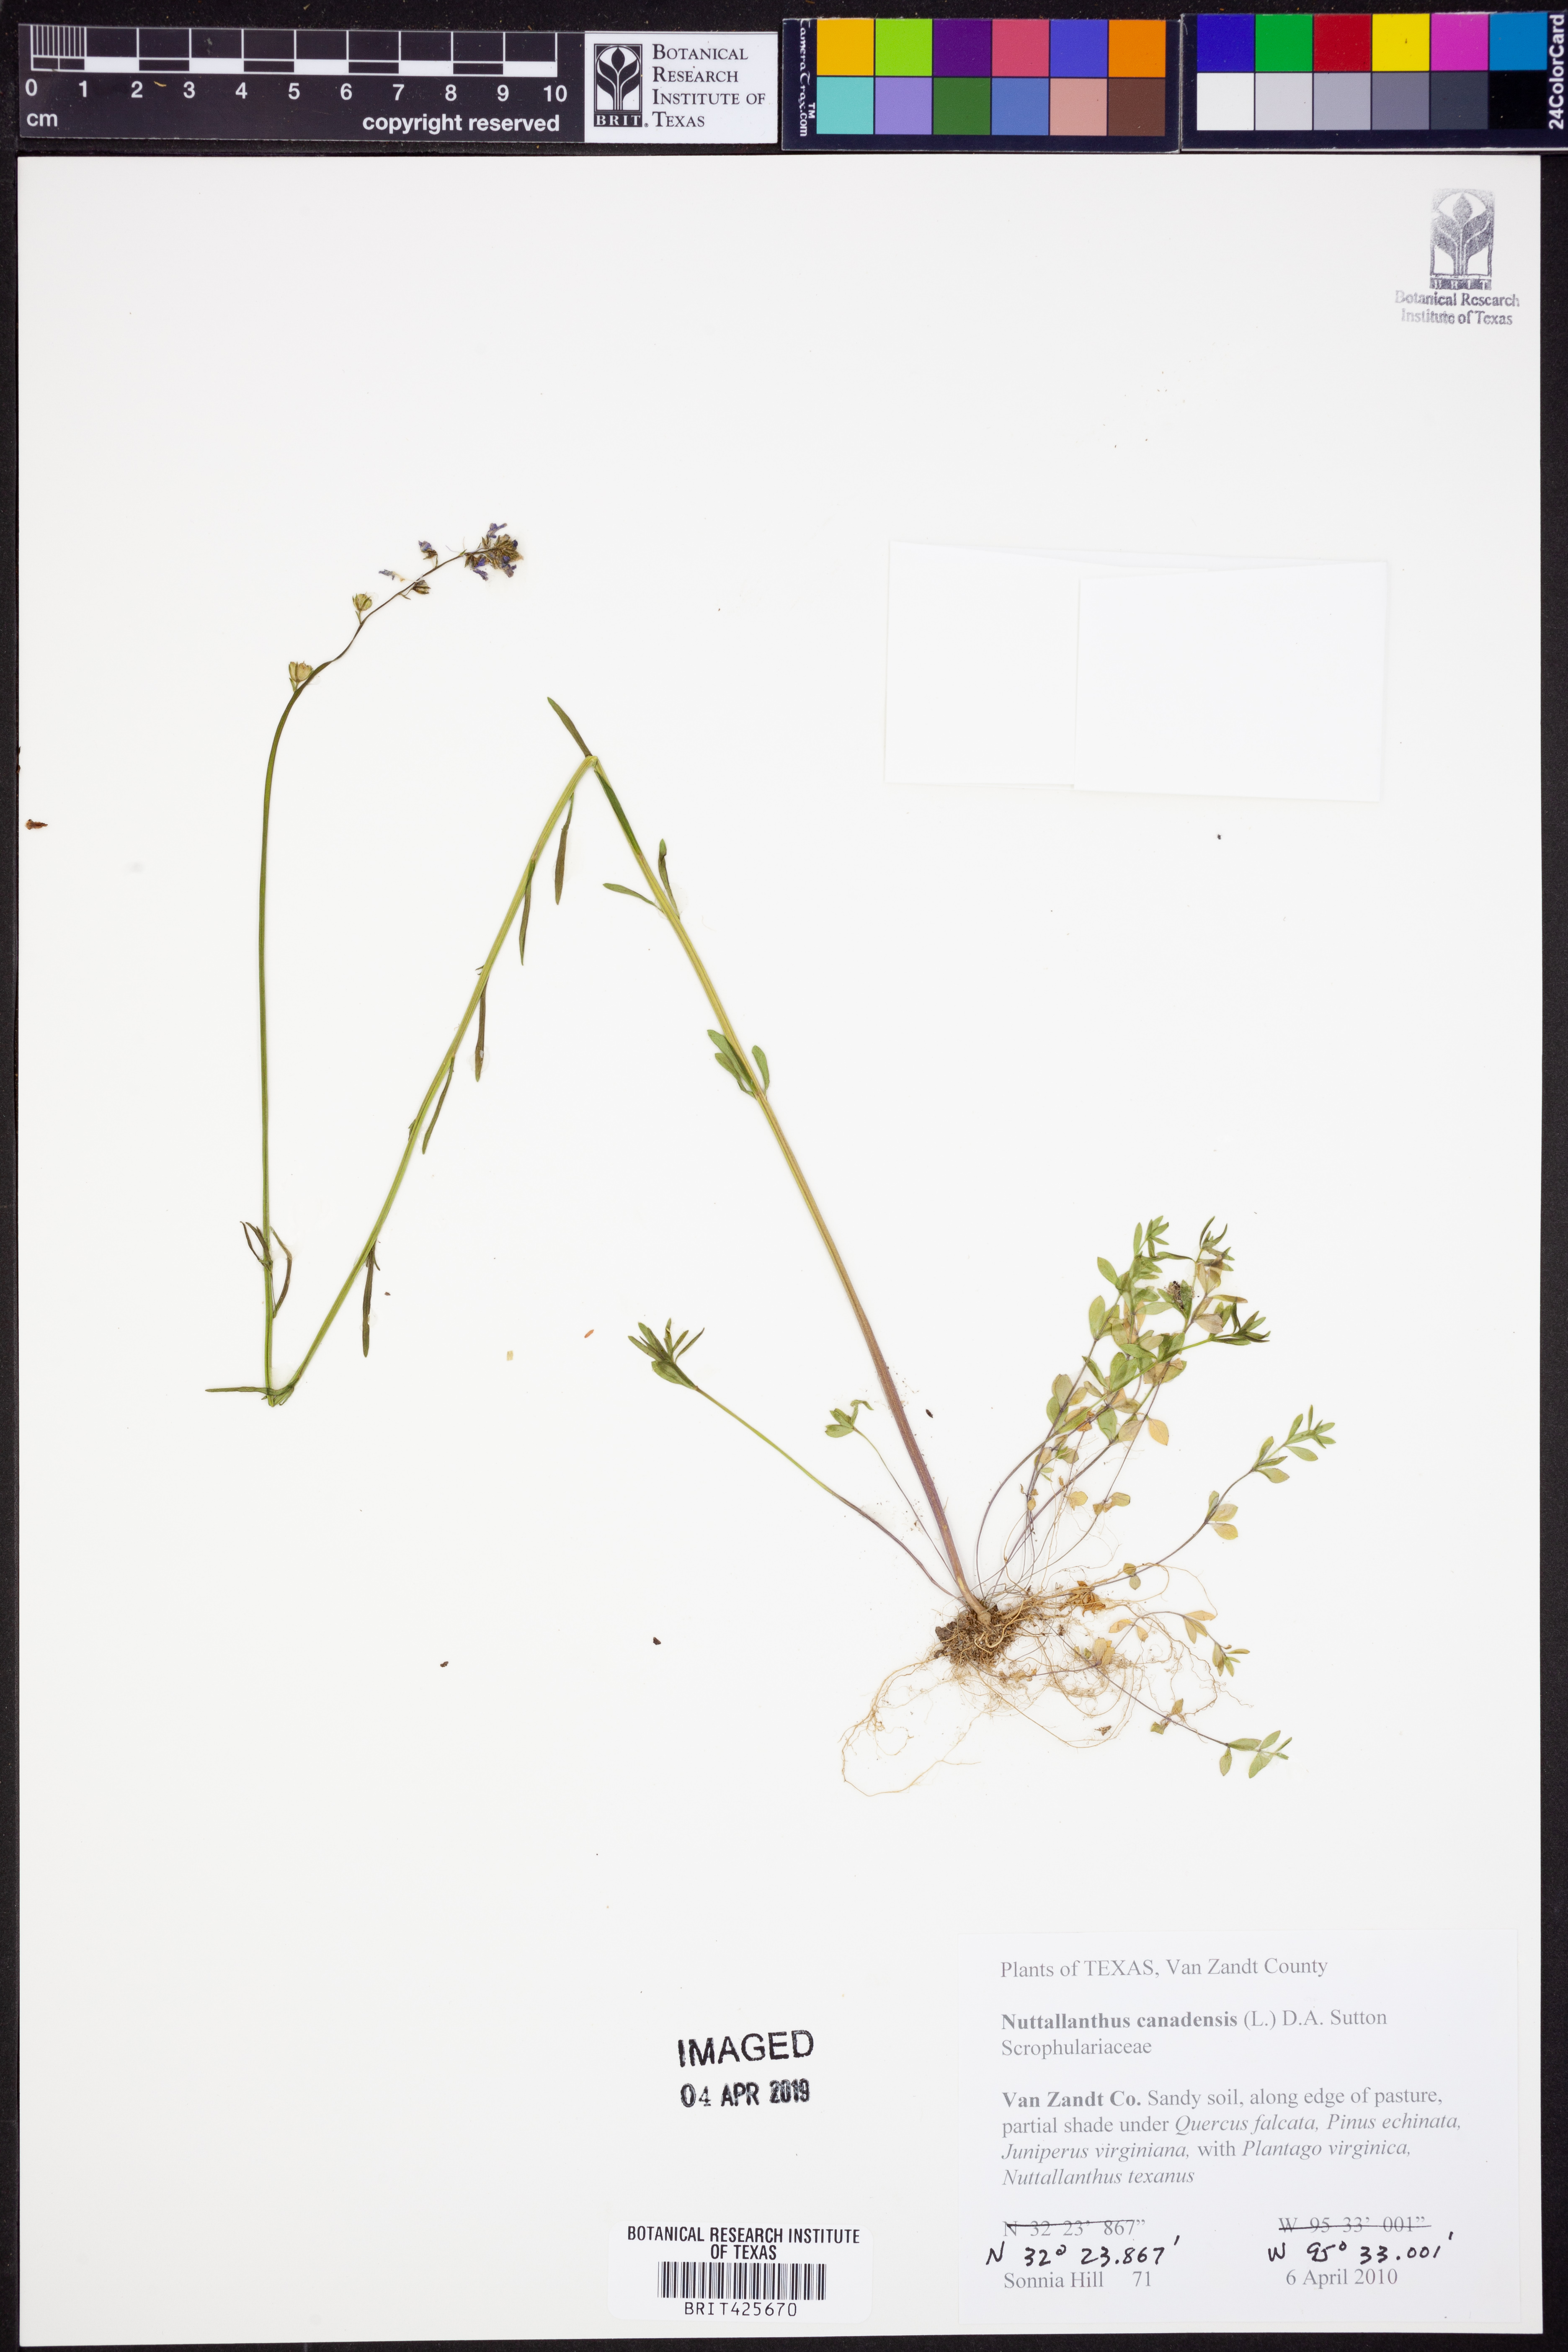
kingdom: Plantae
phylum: Tracheophyta
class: Magnoliopsida
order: Lamiales
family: Plantaginaceae
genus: Nuttallanthus
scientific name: Nuttallanthus canadensis
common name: Blue toadflax
